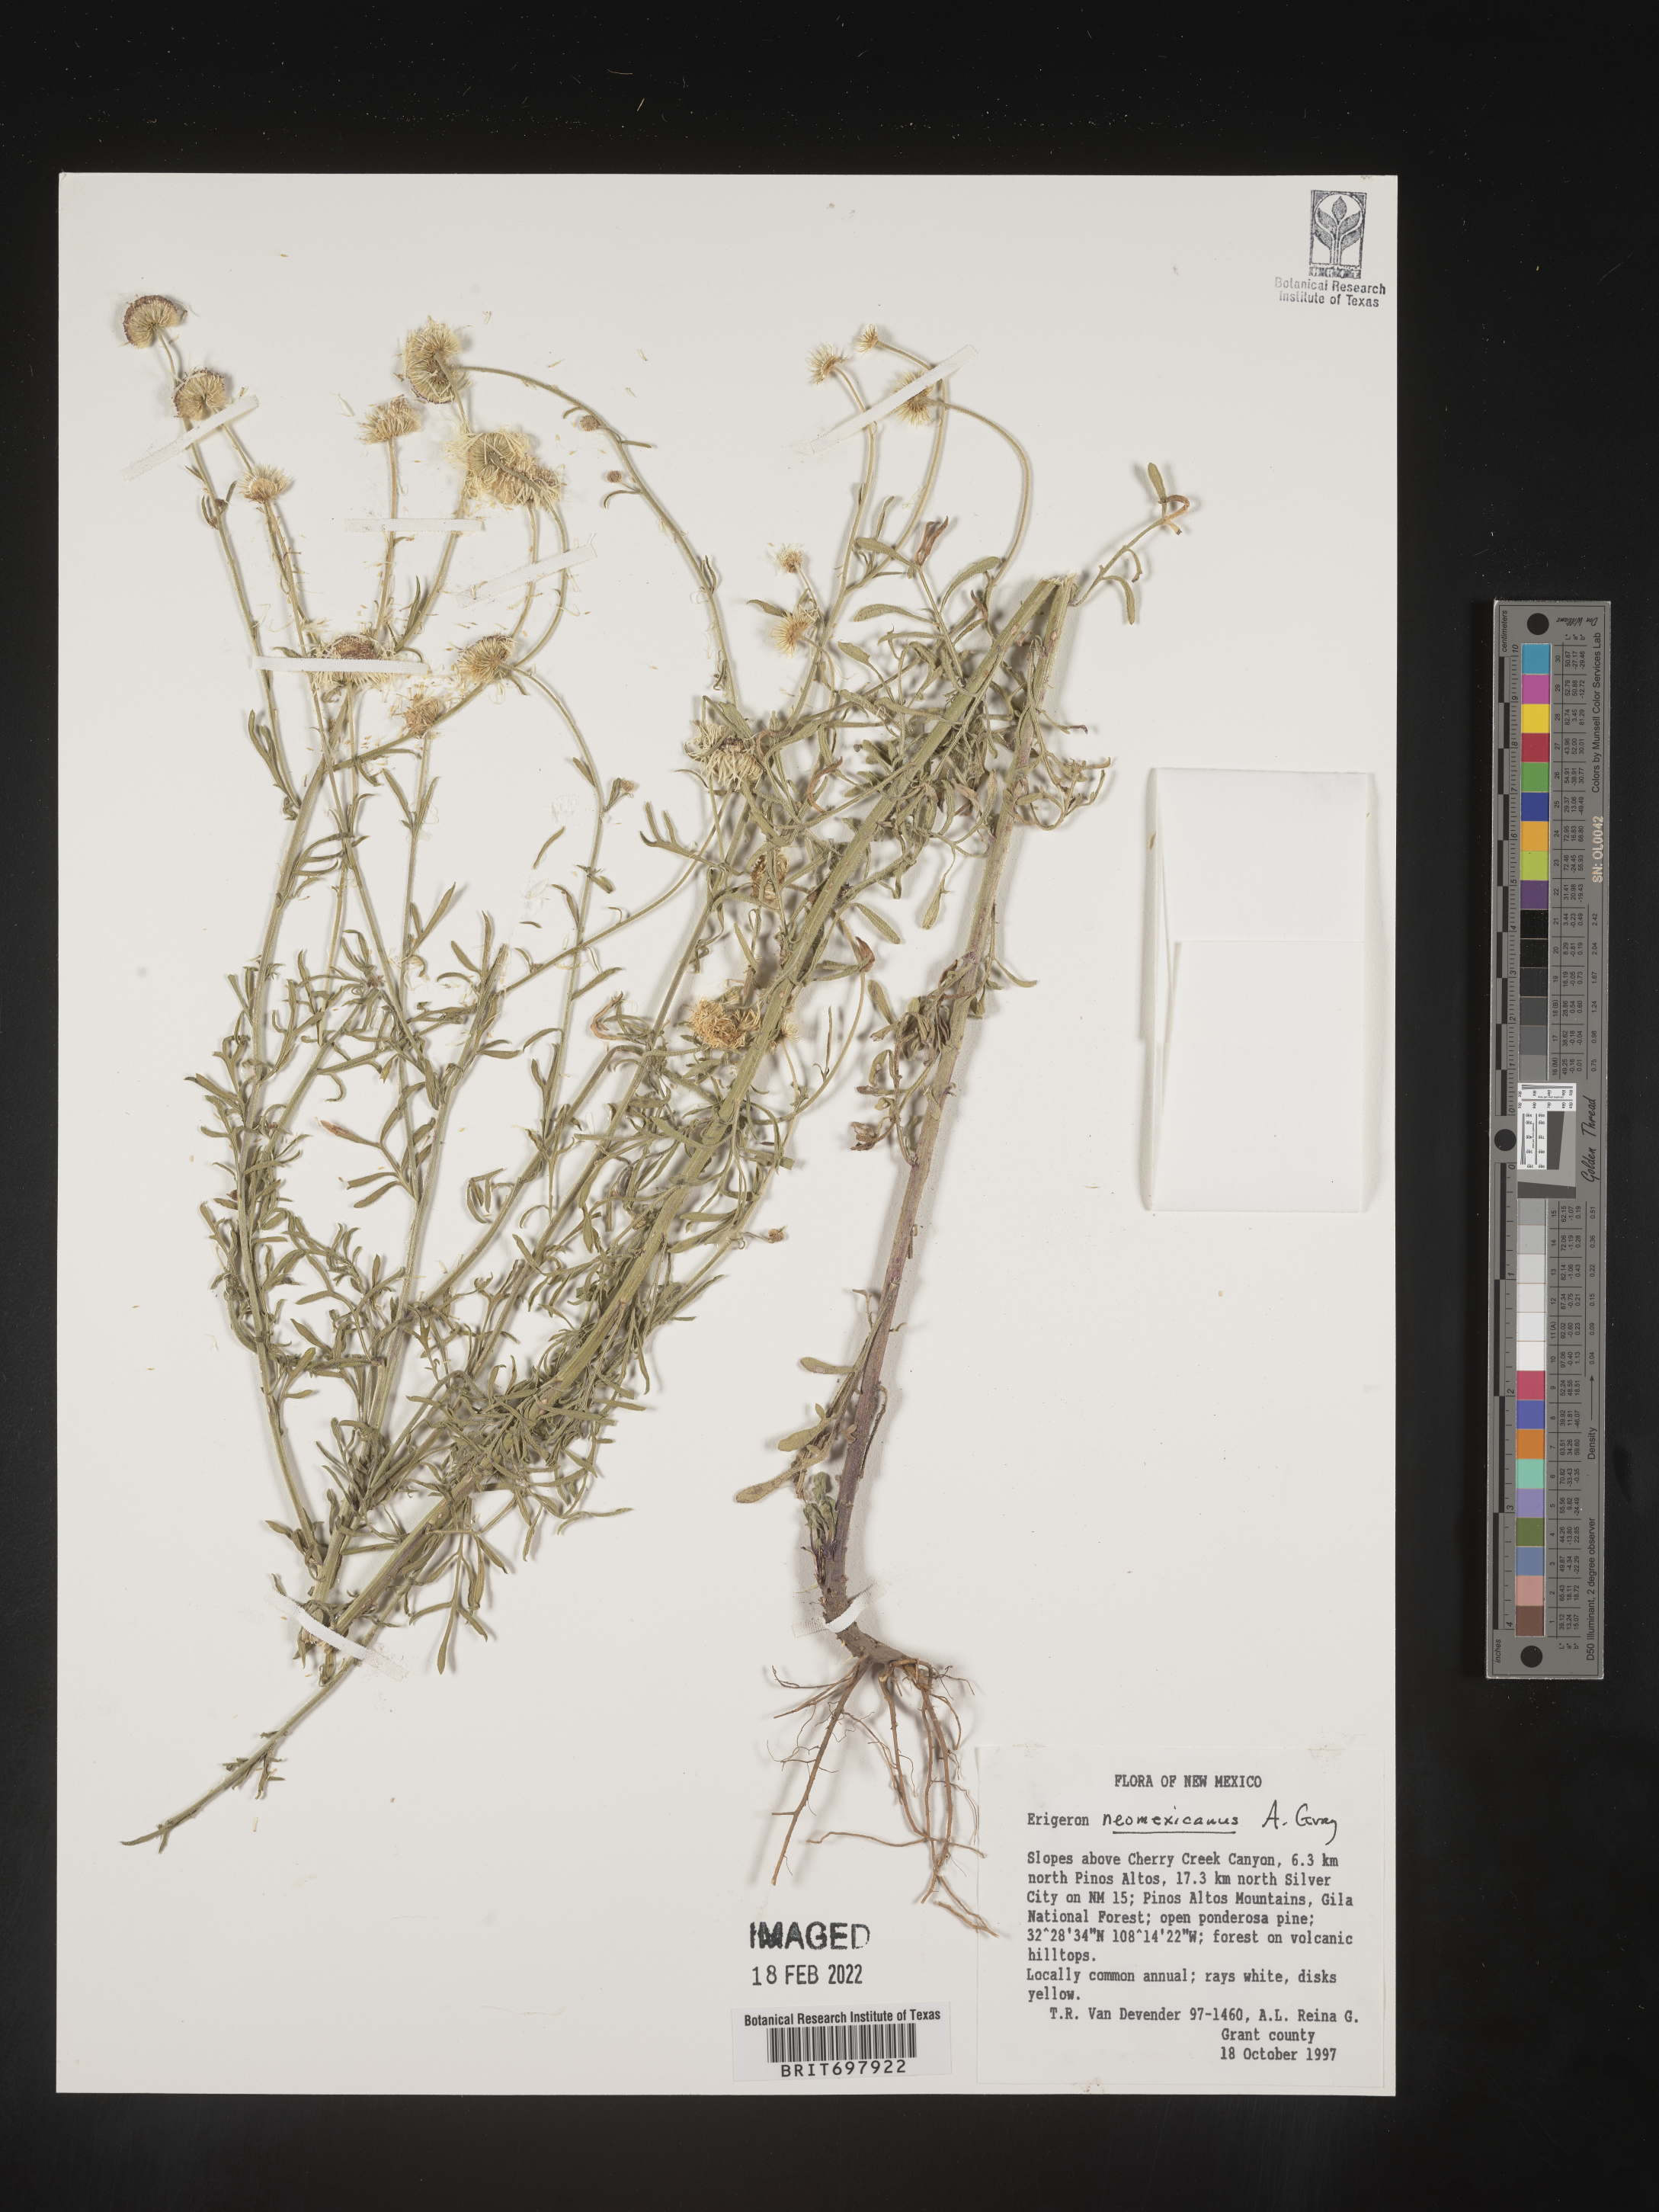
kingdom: Plantae
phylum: Tracheophyta
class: Magnoliopsida
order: Asterales
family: Asteraceae
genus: Erigeron
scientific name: Erigeron neomexicanus
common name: New mexico fleabane
